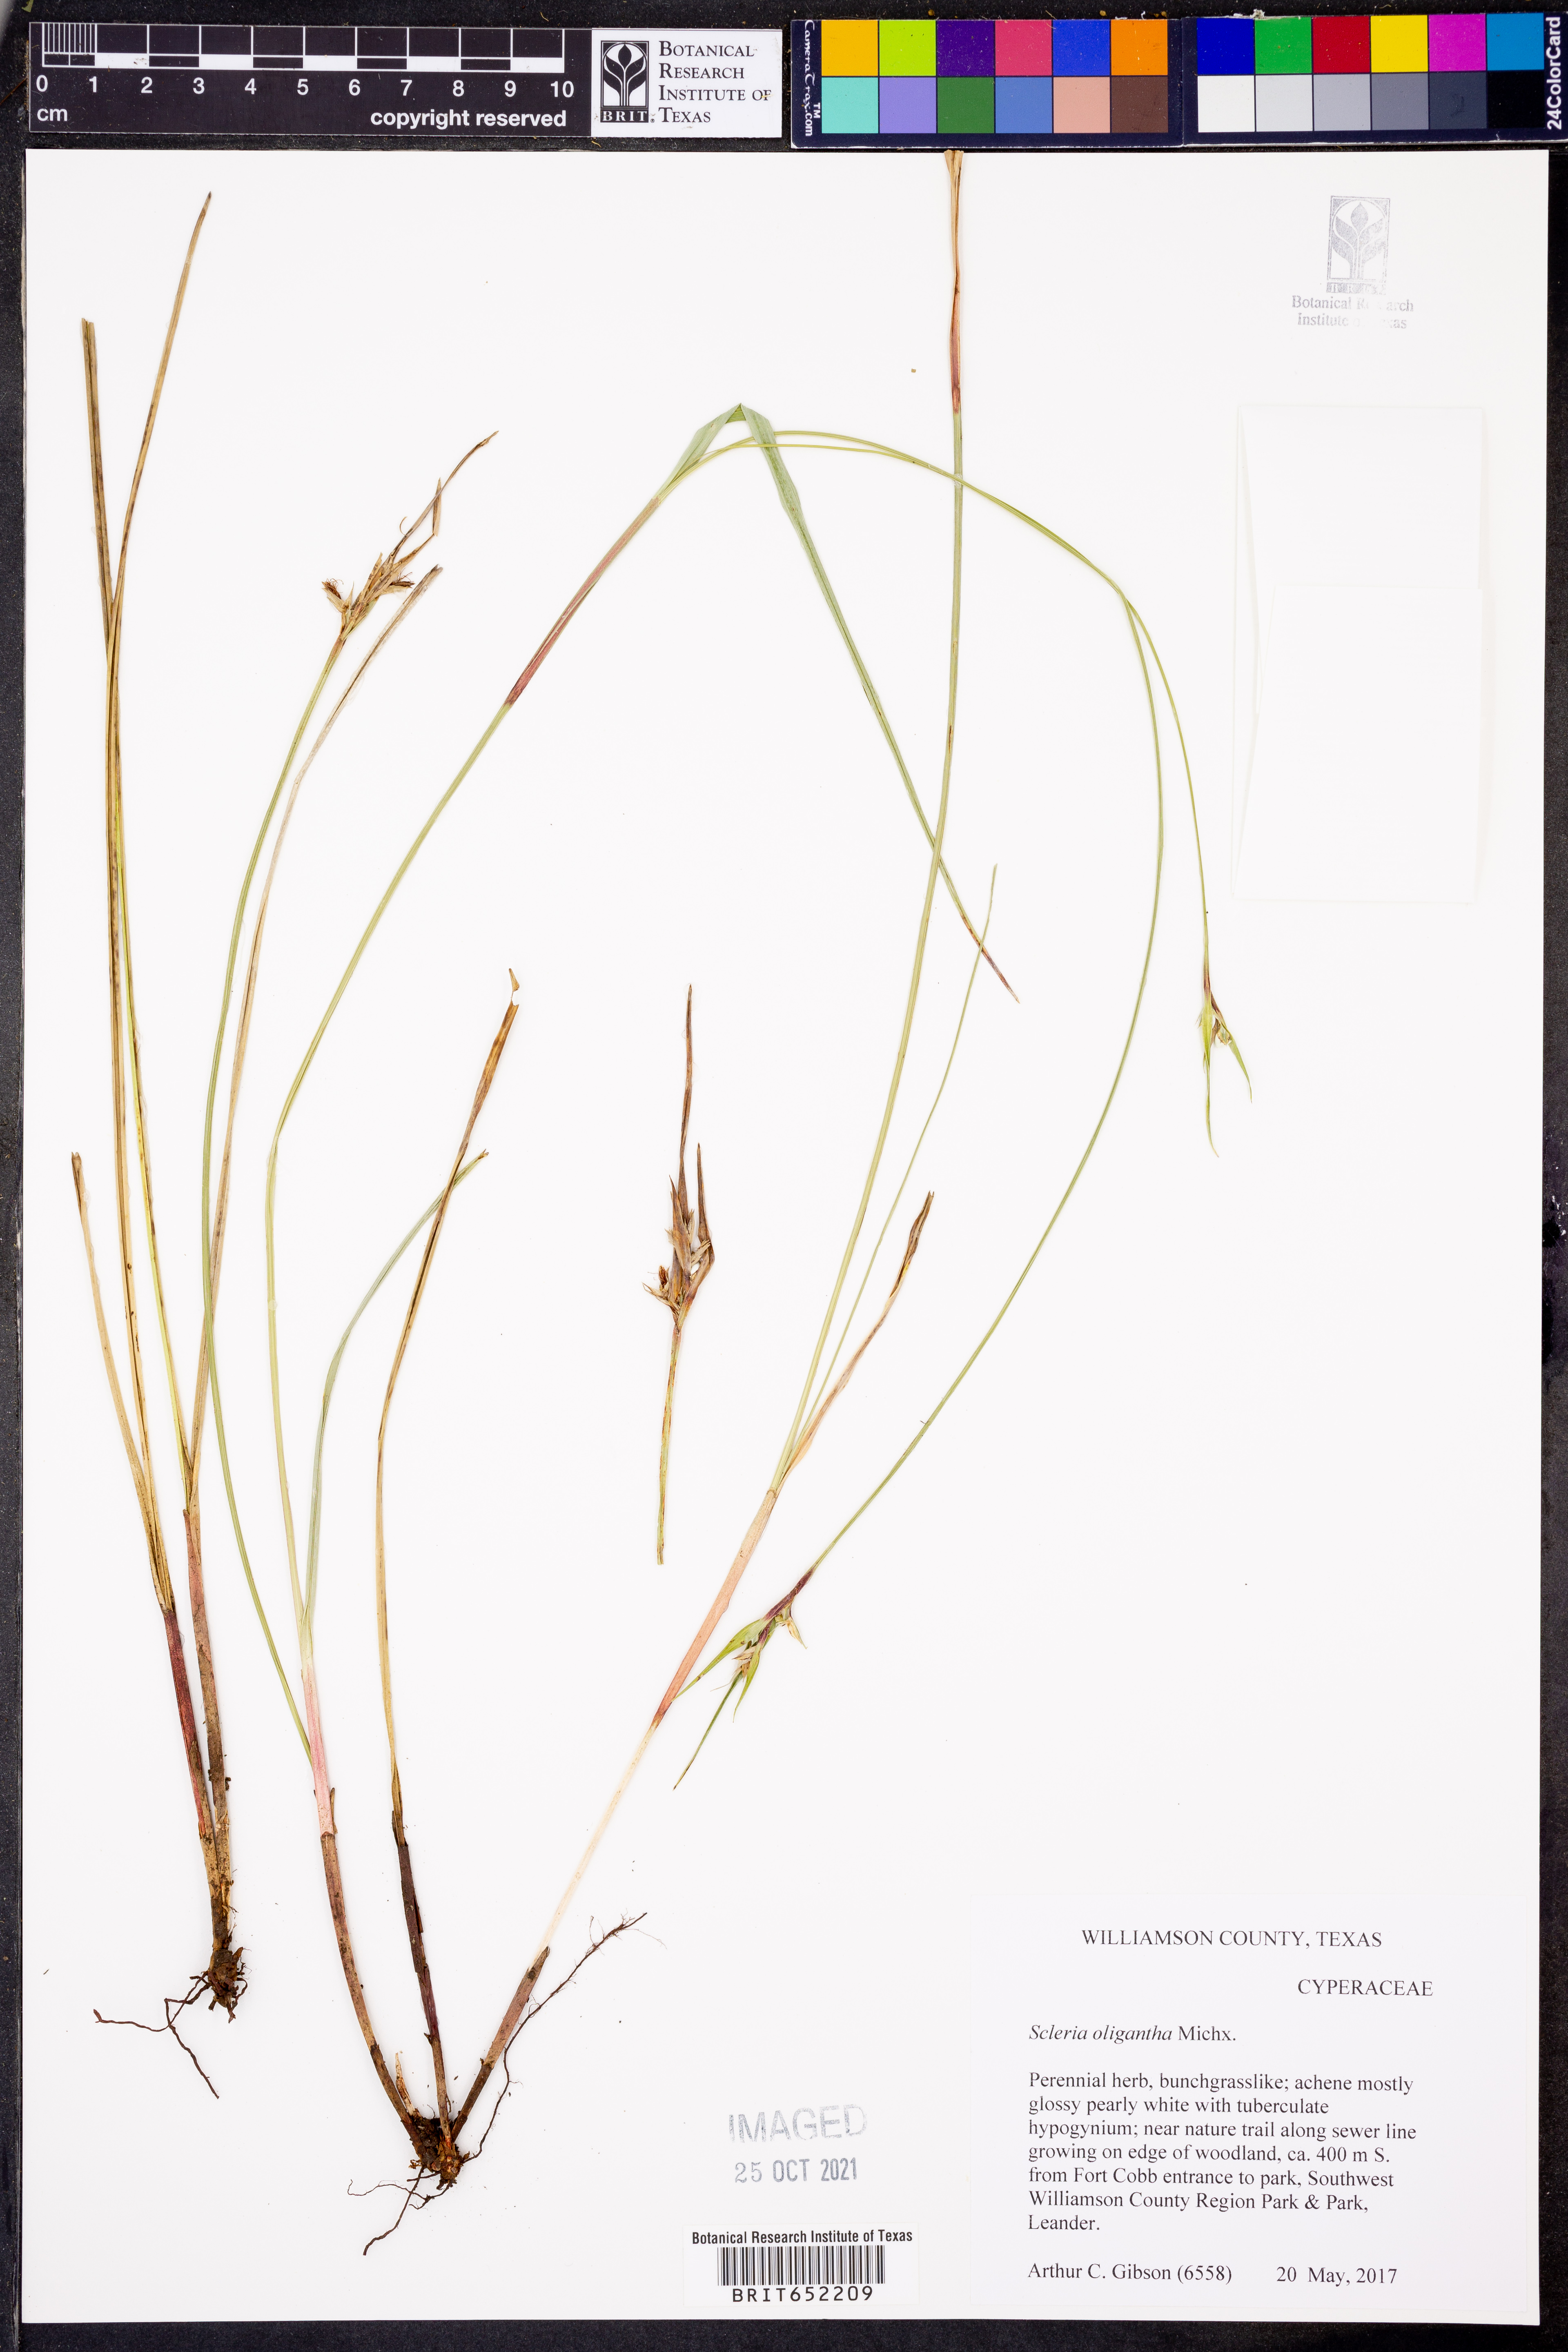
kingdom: Plantae
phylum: Tracheophyta
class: Liliopsida
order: Poales
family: Cyperaceae
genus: Scleria
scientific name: Scleria oligantha
